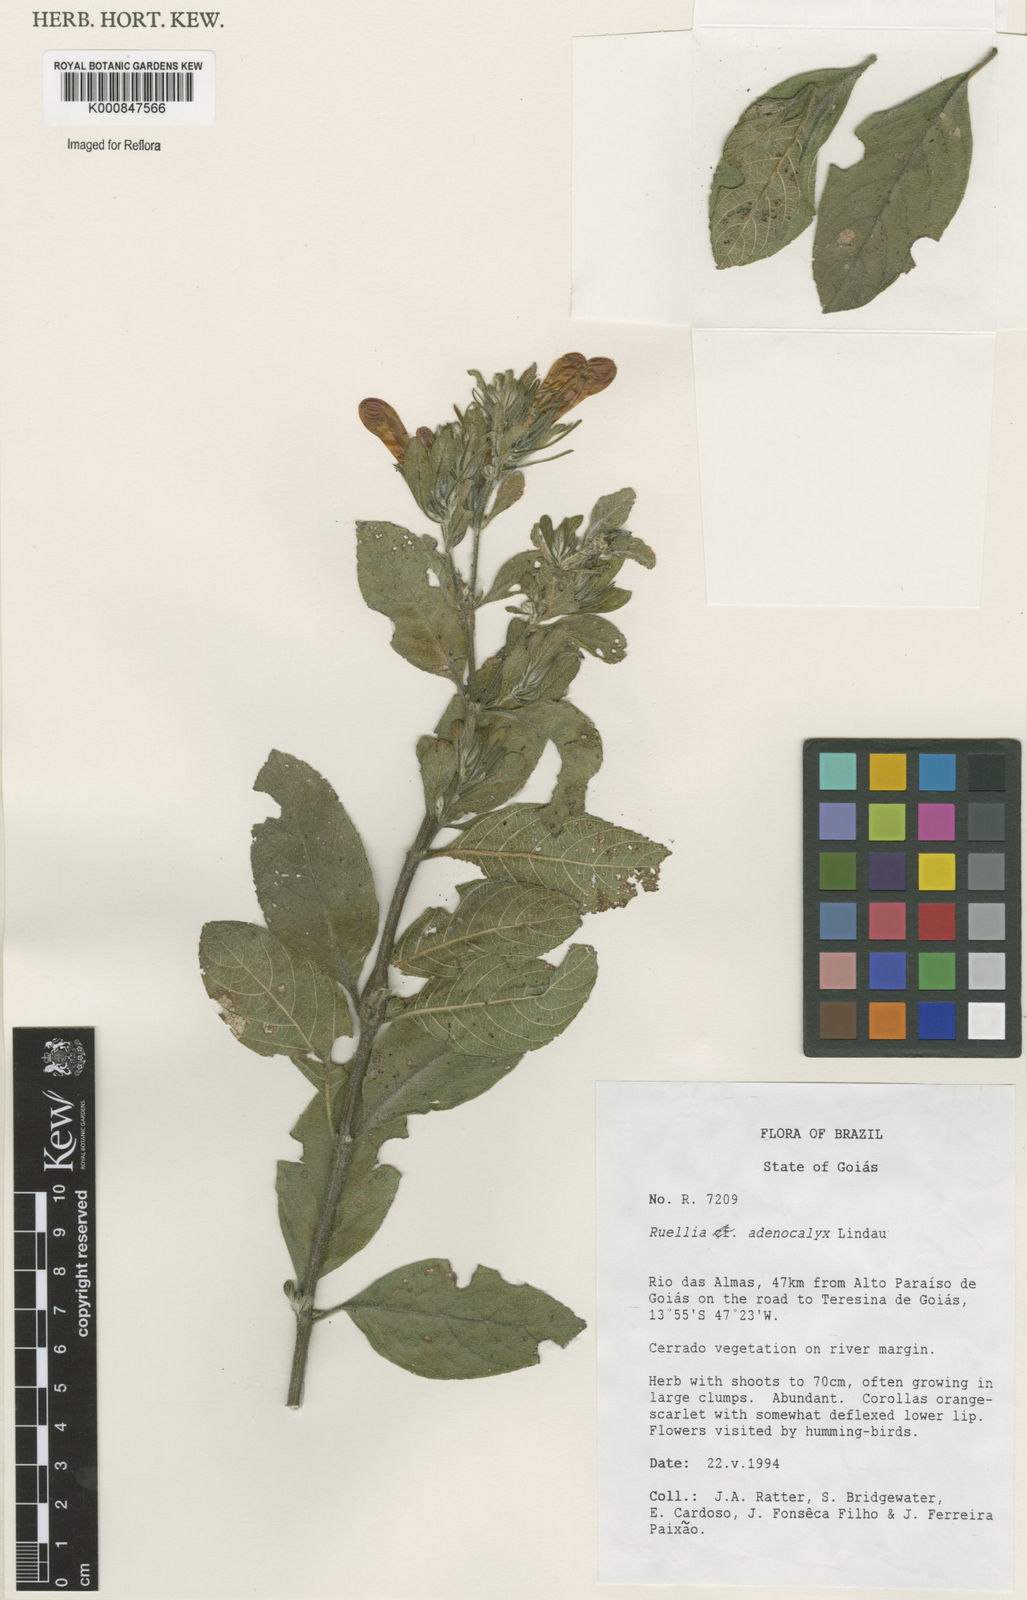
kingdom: Plantae
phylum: Tracheophyta
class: Magnoliopsida
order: Lamiales
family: Acanthaceae
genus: Ruellia
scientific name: Ruellia adenocalyx
